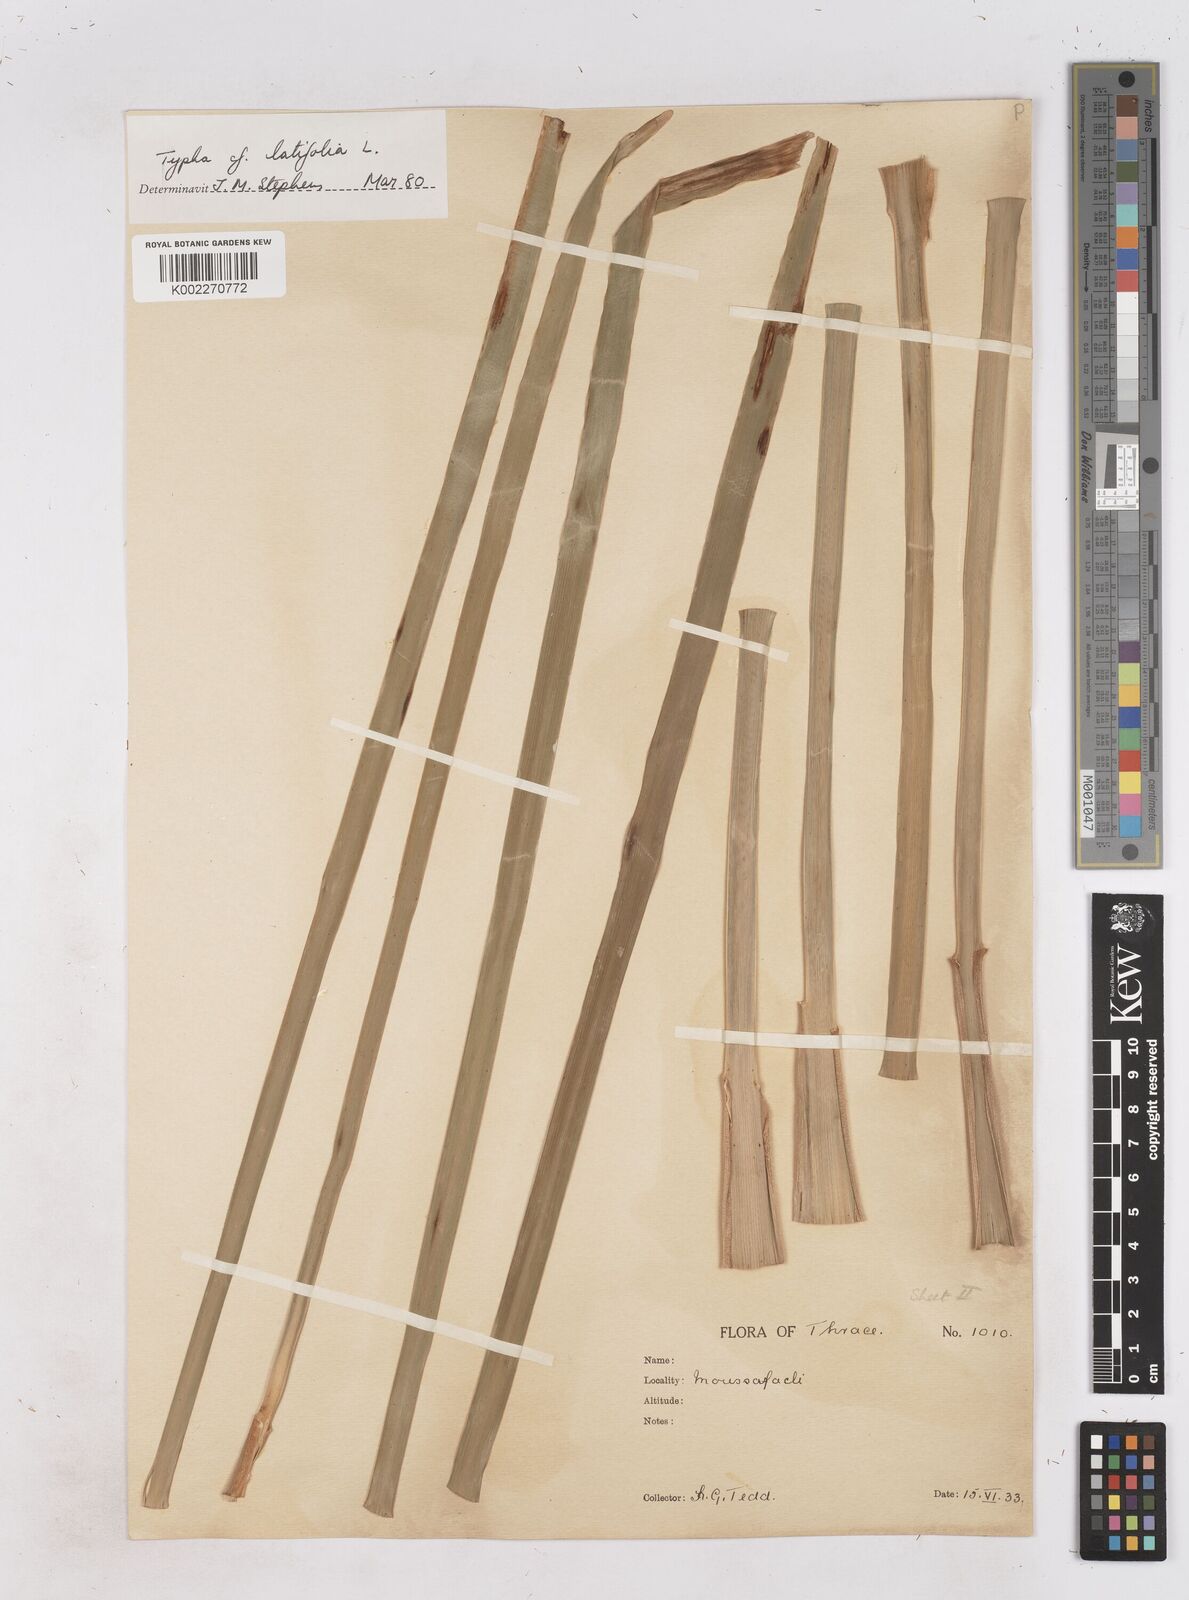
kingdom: Plantae
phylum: Tracheophyta
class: Liliopsida
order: Poales
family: Typhaceae
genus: Typha
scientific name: Typha latifolia
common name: Broadleaf cattail
